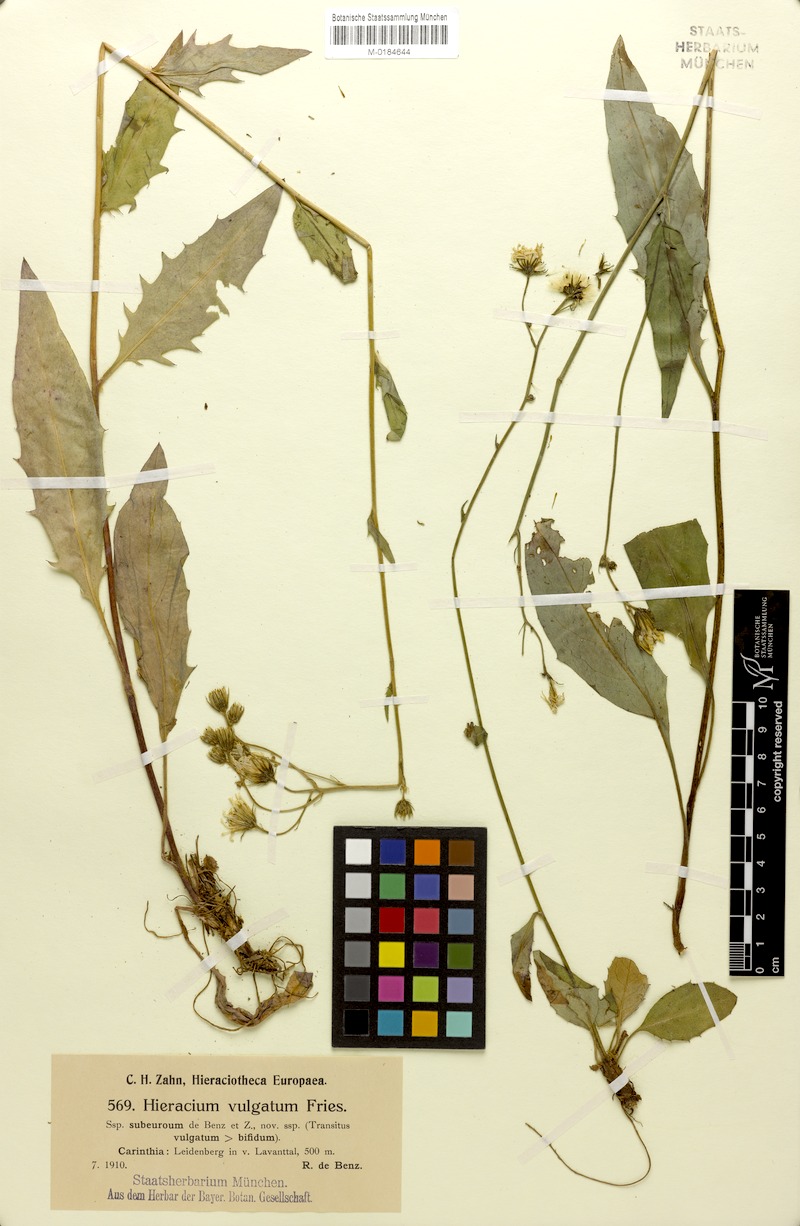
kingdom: Plantae
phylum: Tracheophyta
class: Magnoliopsida
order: Asterales
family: Asteraceae
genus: Hieracium
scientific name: Hieracium lachenalii
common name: Common hawkweed
